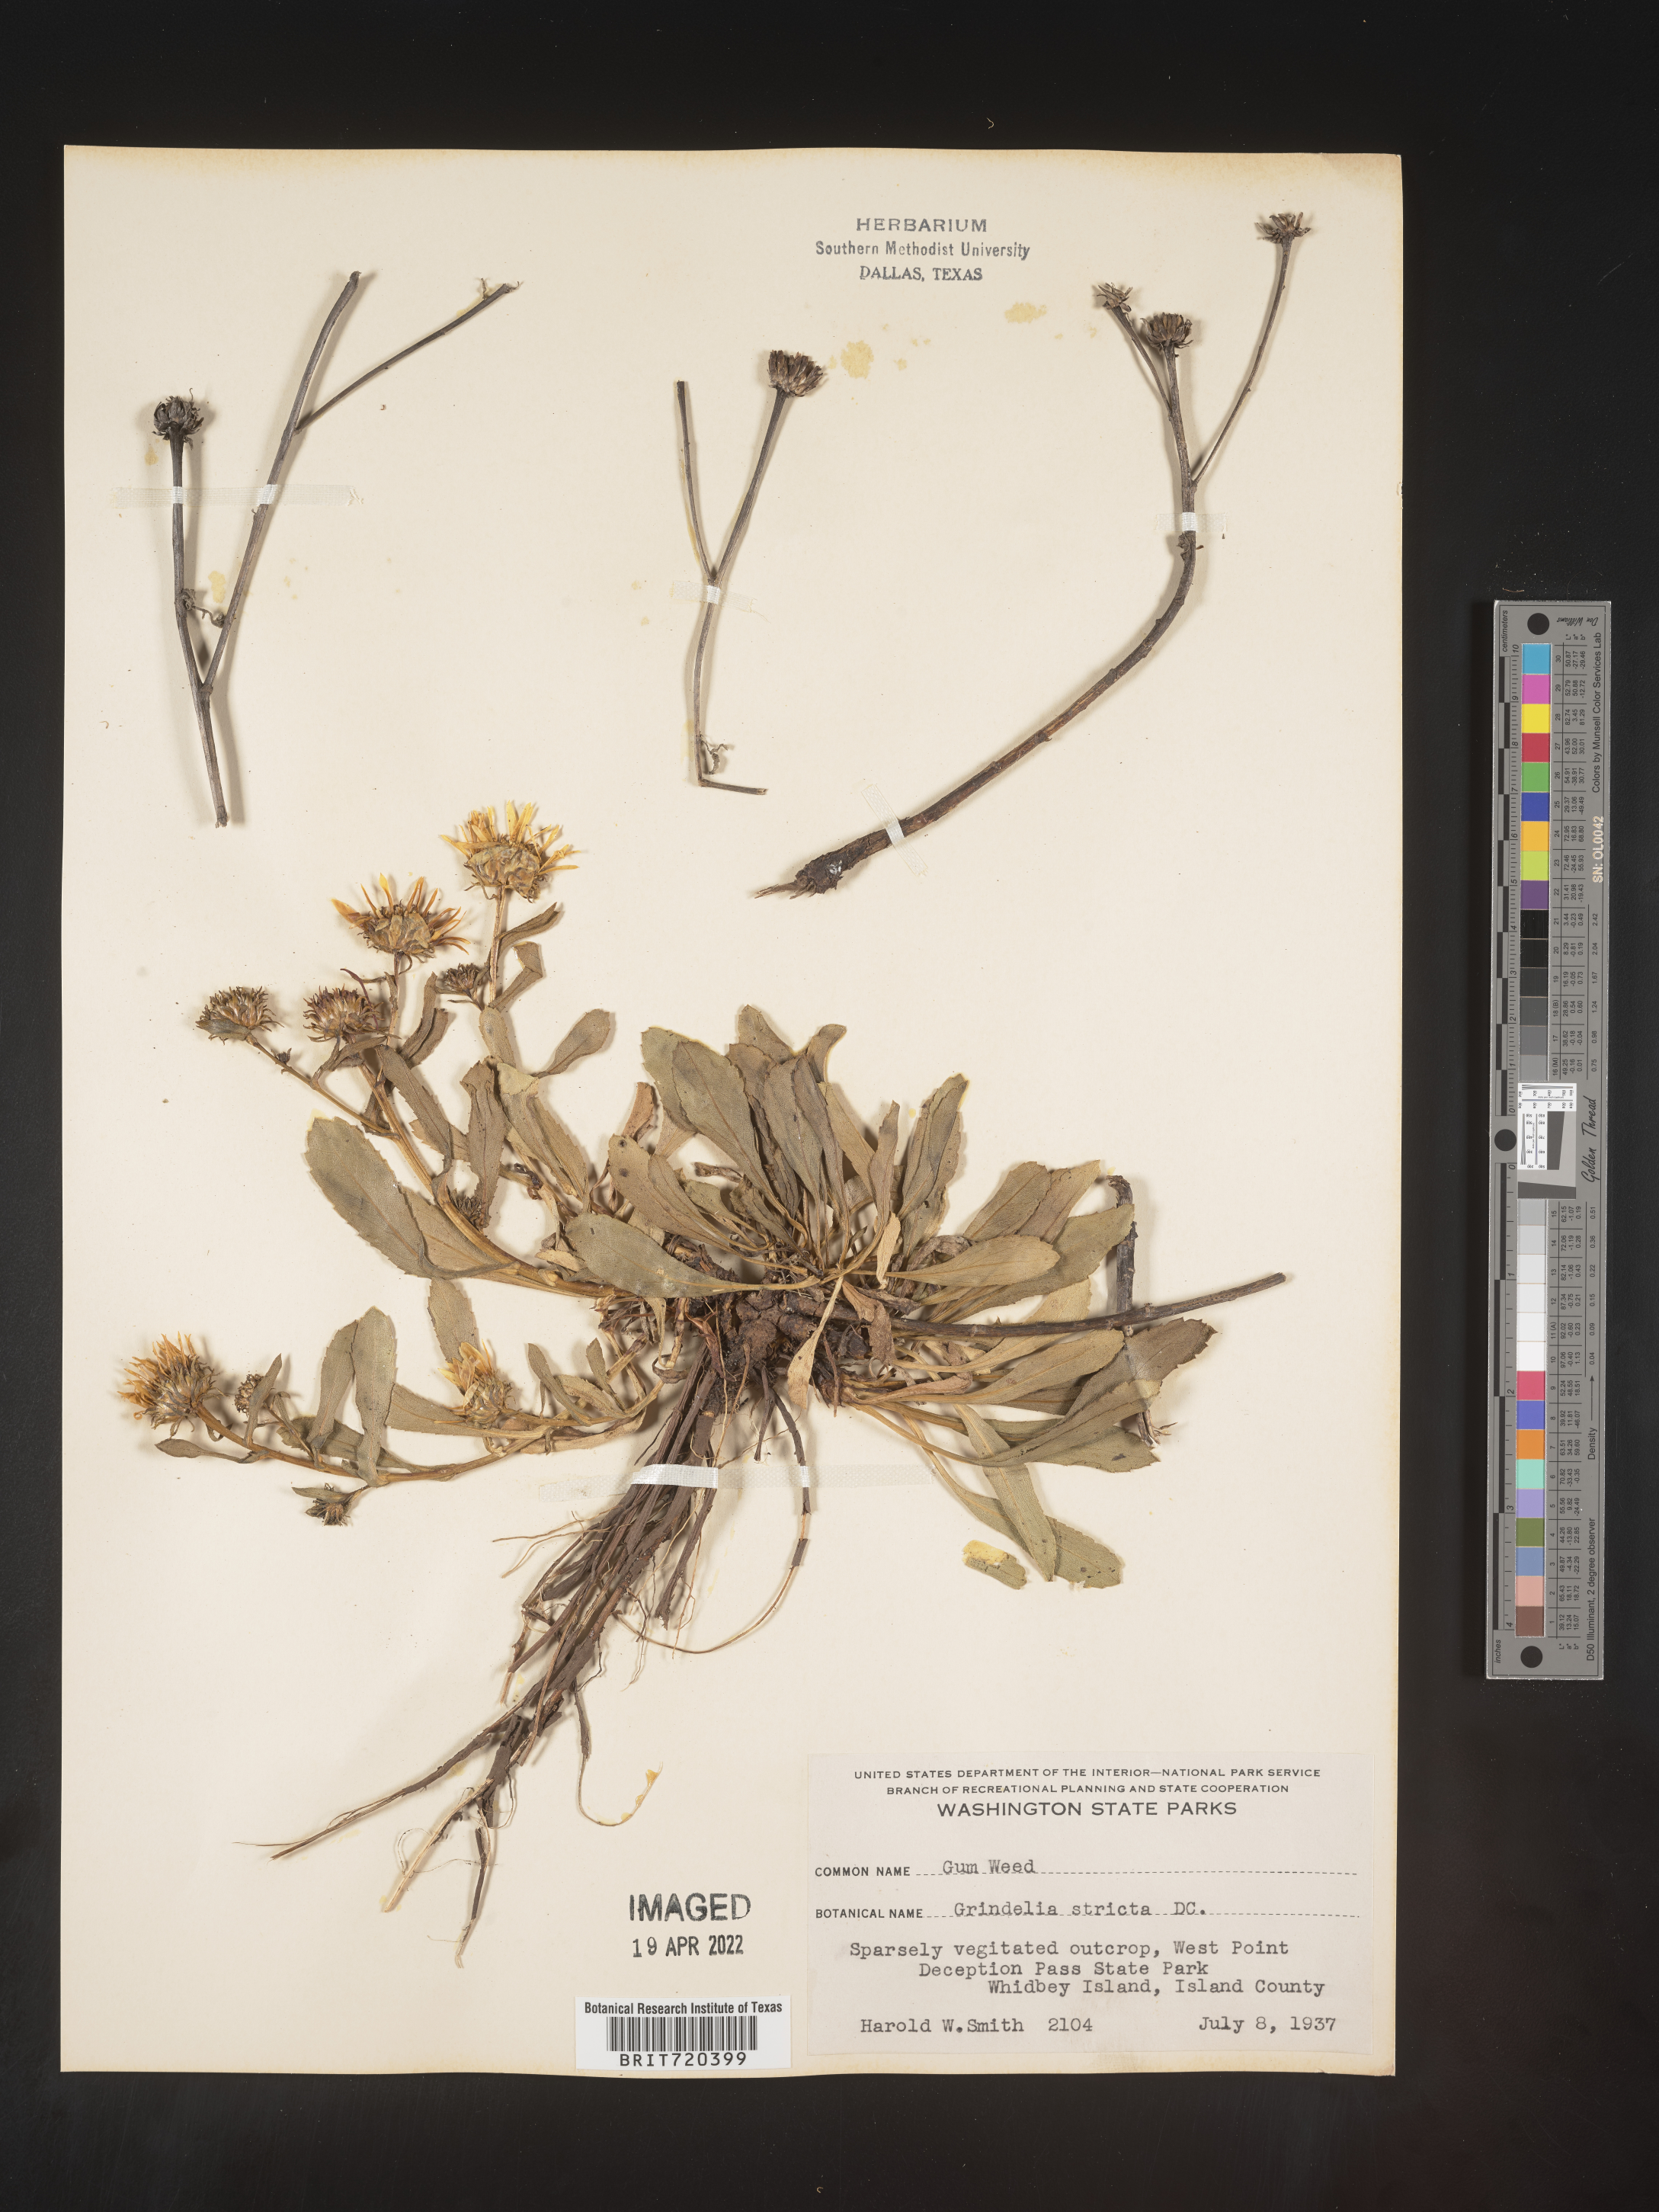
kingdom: Plantae
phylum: Tracheophyta
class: Magnoliopsida
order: Asterales
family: Asteraceae
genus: Grindelia
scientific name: Grindelia hirsutula
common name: Hairy gumweed
